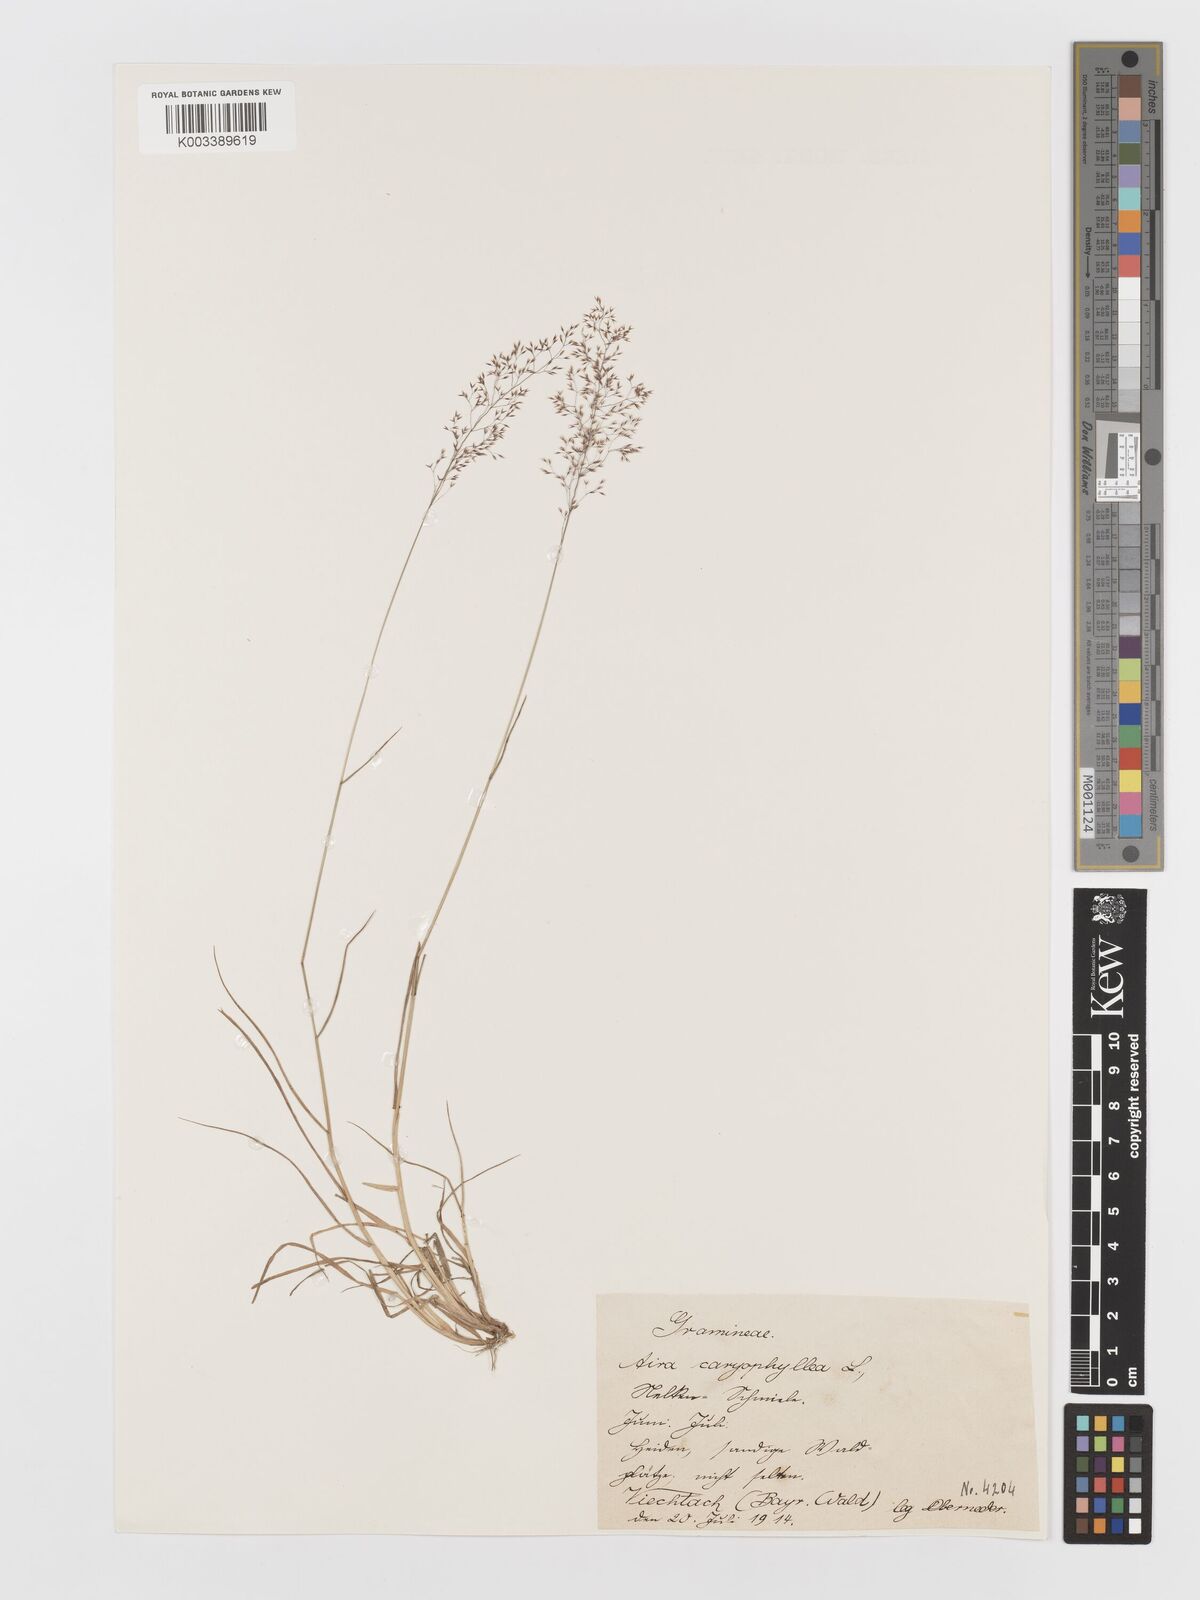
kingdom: Plantae
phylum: Tracheophyta
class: Liliopsida
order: Poales
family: Poaceae
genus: Aira
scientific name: Aira caryophyllea
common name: Silver hairgrass
